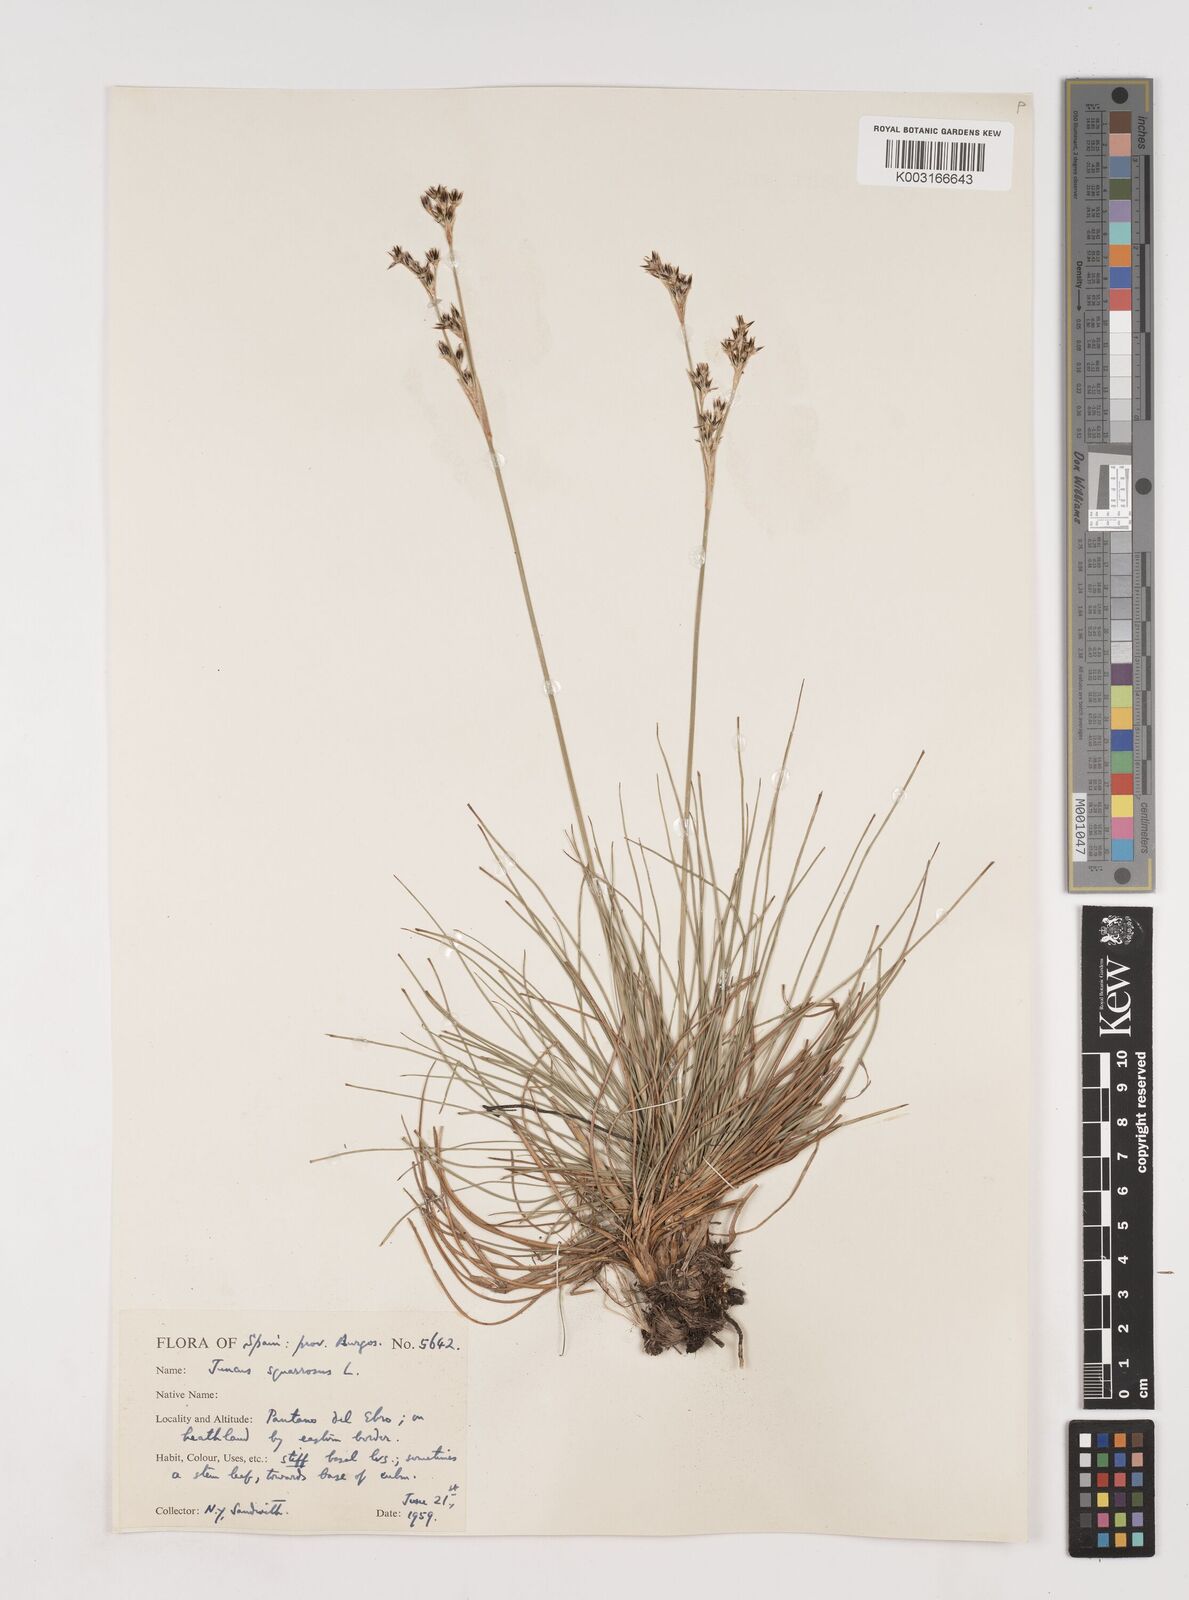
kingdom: Plantae
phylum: Tracheophyta
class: Liliopsida
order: Poales
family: Juncaceae
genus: Juncus
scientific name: Juncus squarrosus
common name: Heath rush
